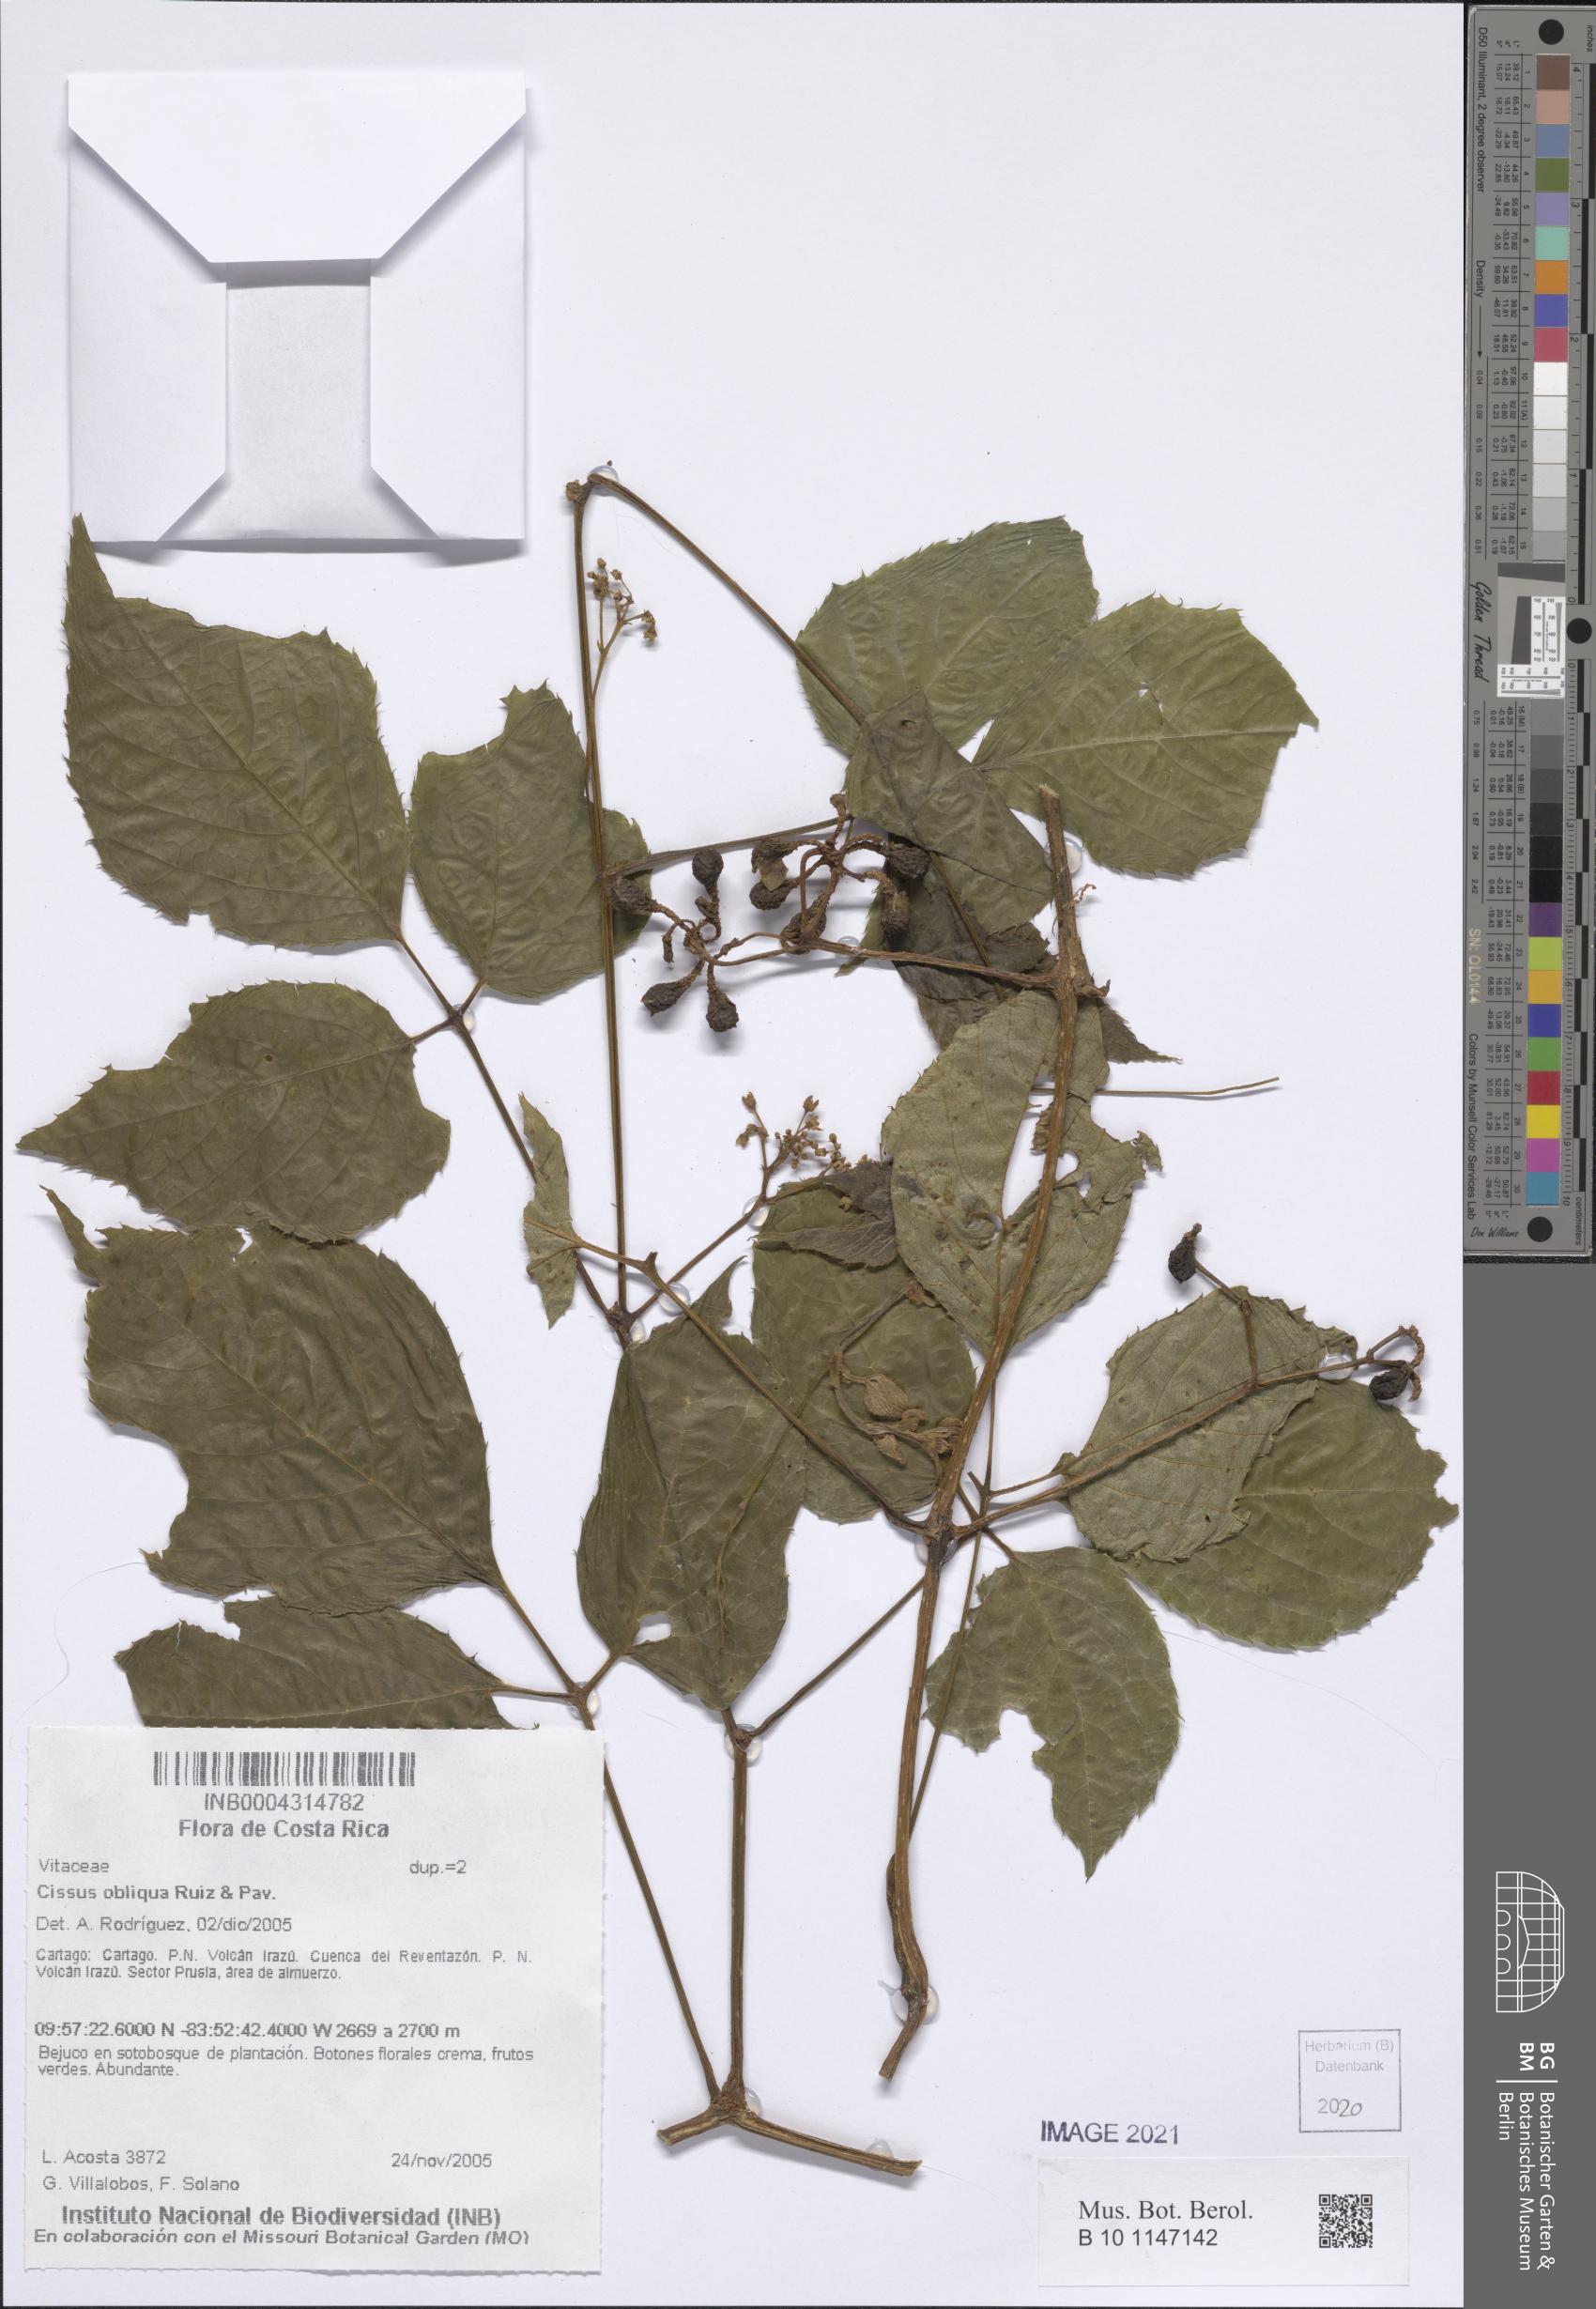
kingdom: Plantae
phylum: Tracheophyta
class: Magnoliopsida
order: Vitales
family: Vitaceae
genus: Cissus
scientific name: Cissus obliqua
